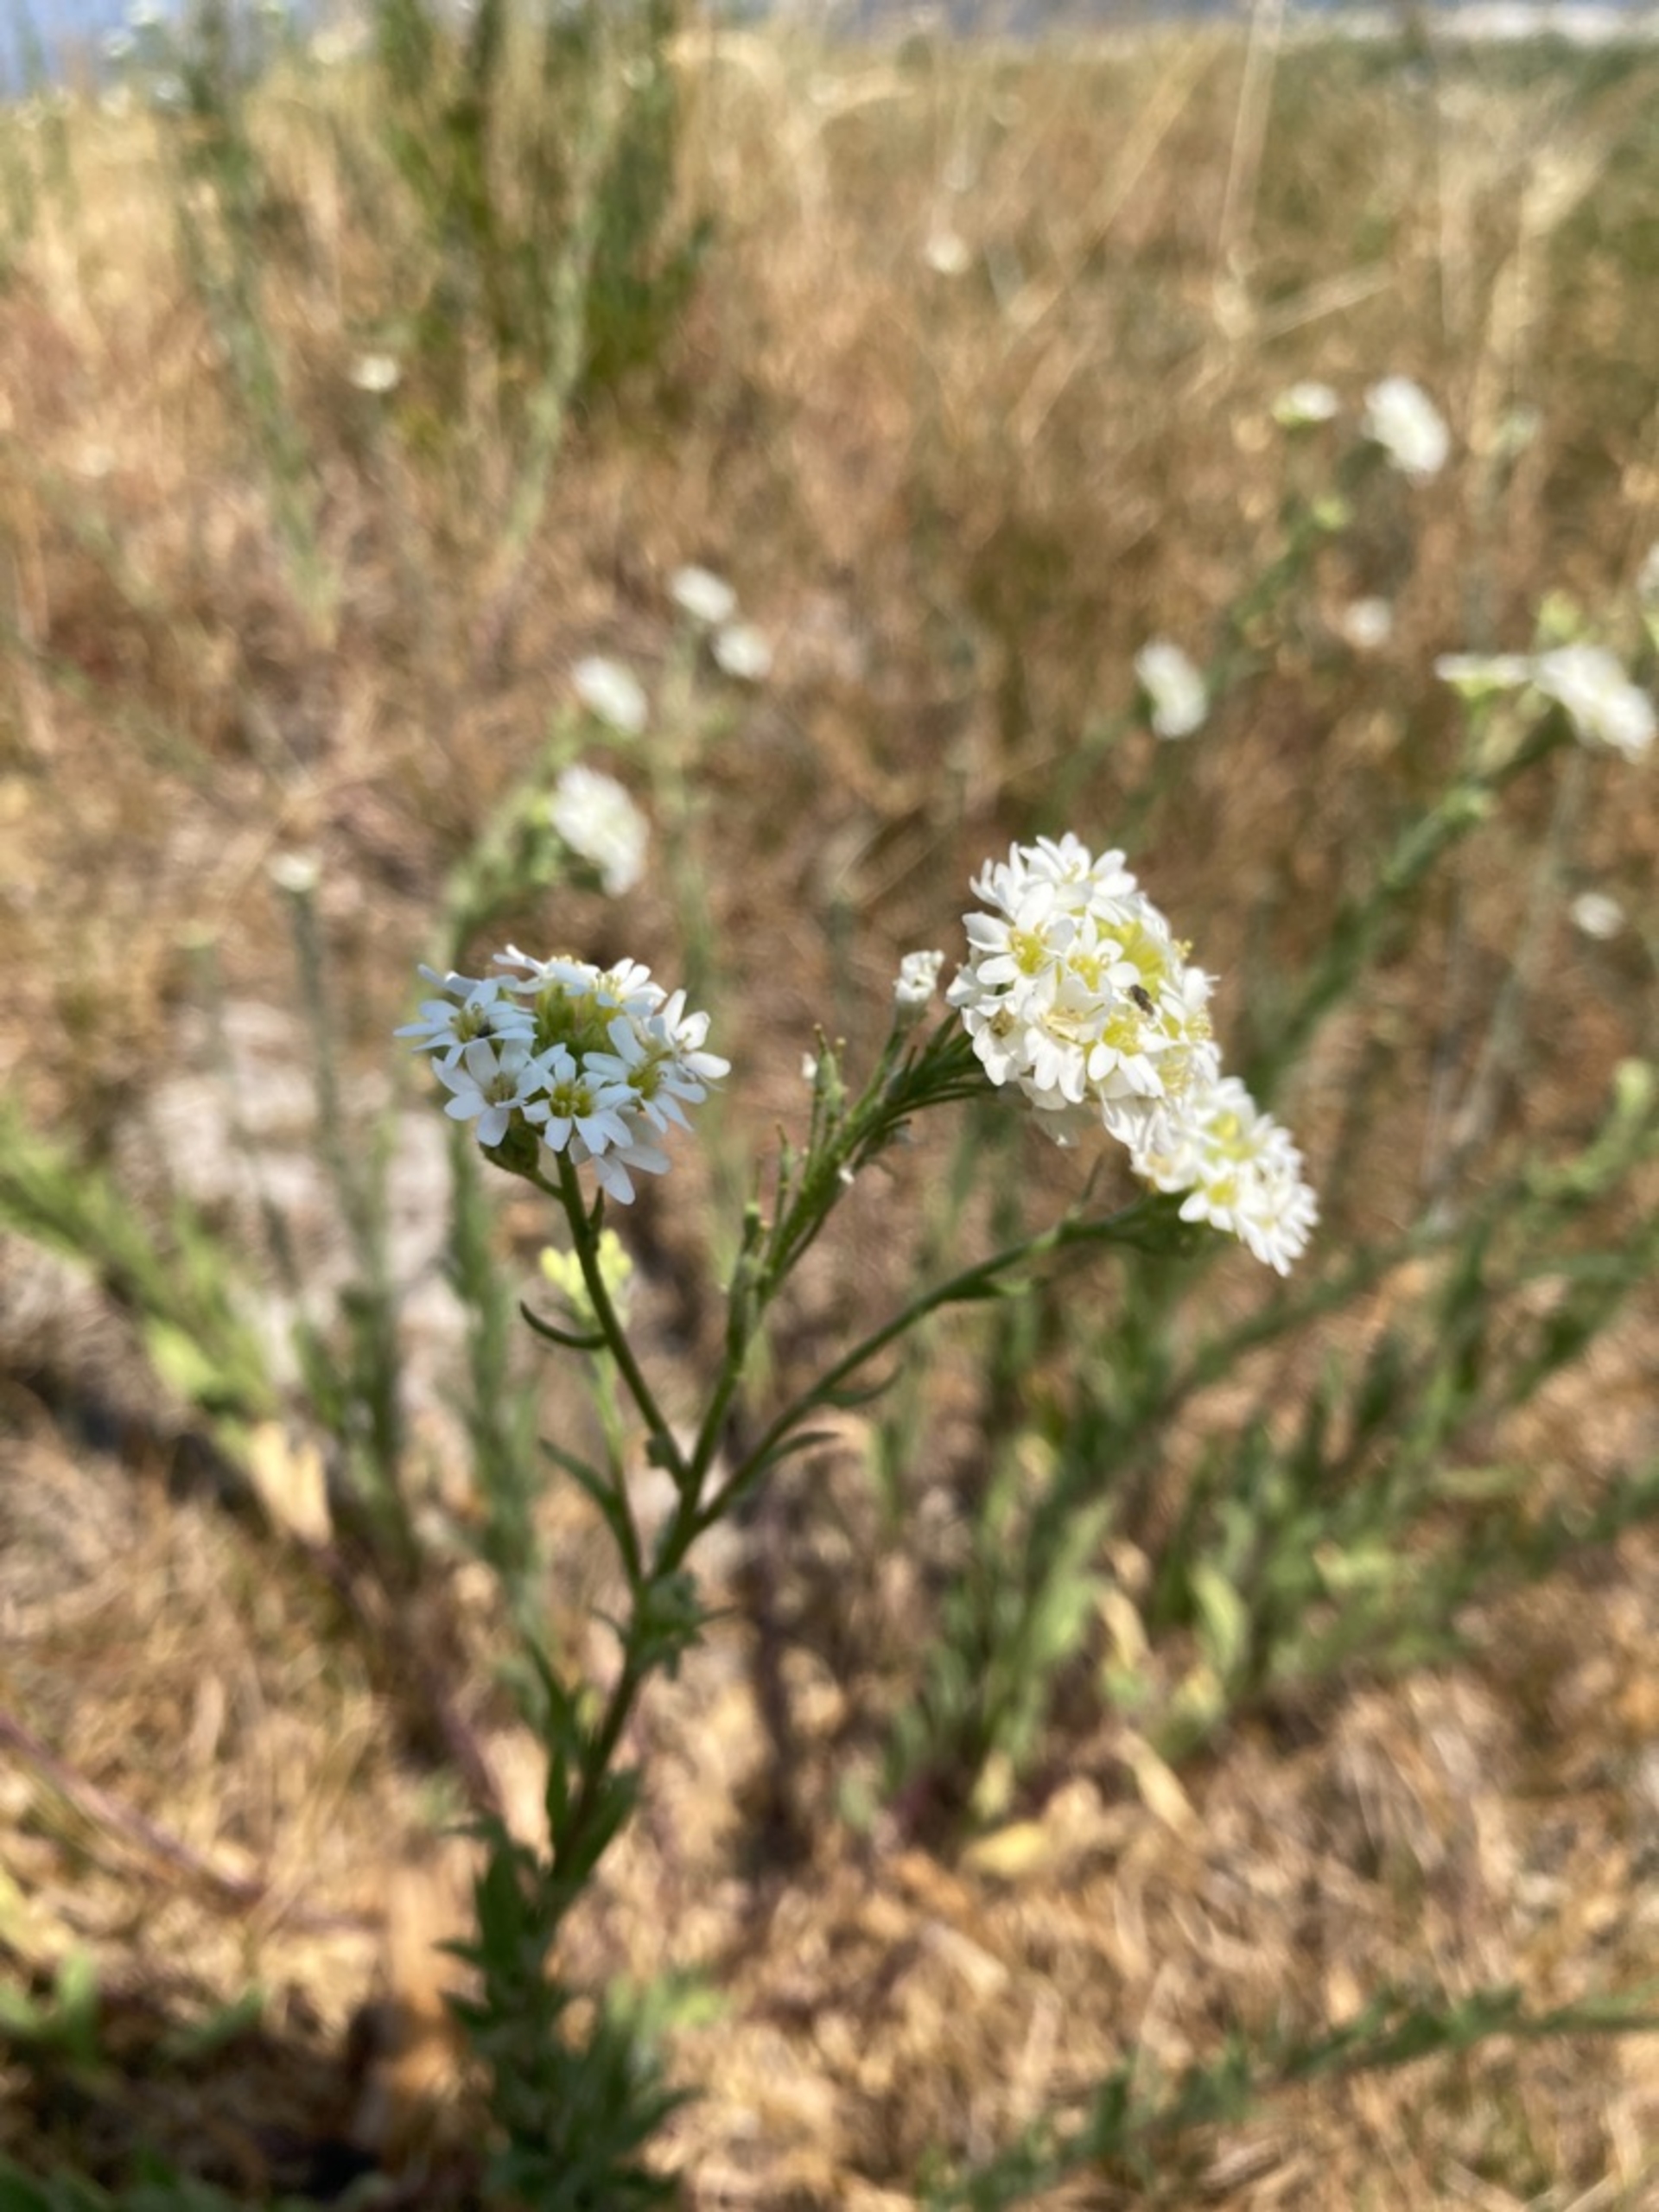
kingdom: Plantae
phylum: Tracheophyta
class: Magnoliopsida
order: Brassicales
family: Brassicaceae
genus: Berteroa
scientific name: Berteroa incana
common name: Kløvplade
